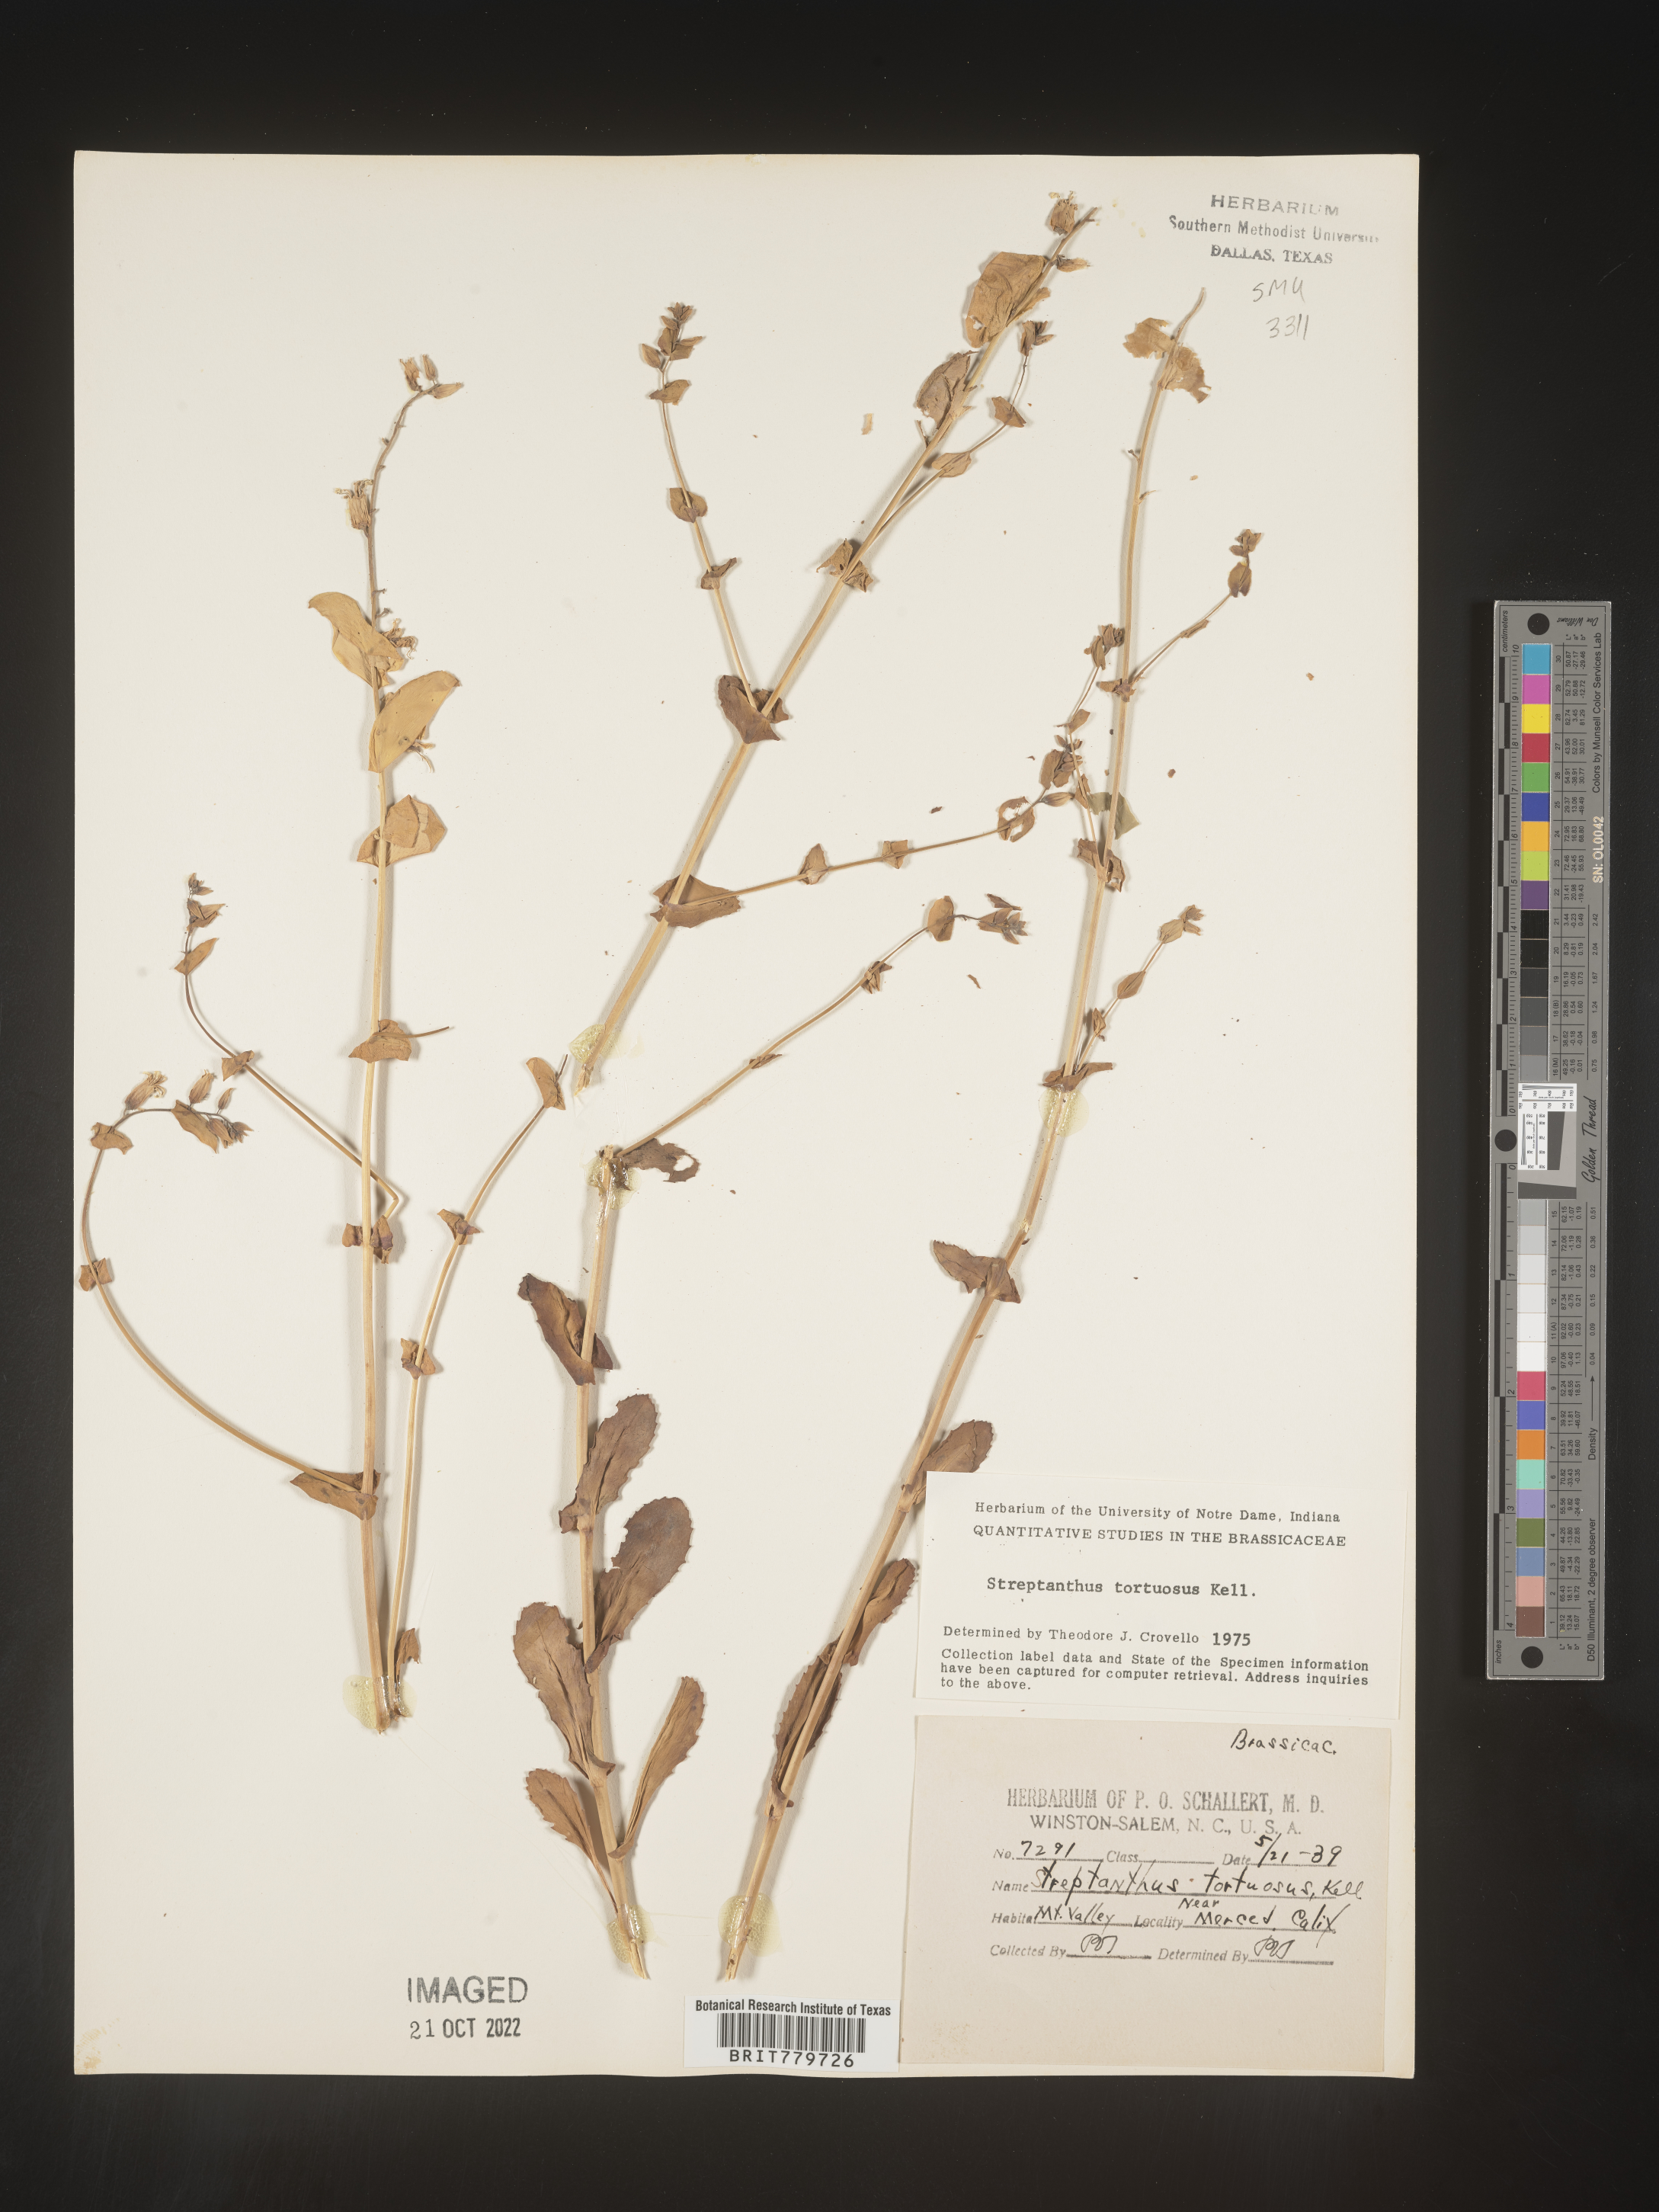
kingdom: Plantae
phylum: Tracheophyta
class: Magnoliopsida
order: Brassicales
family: Brassicaceae
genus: Streptanthus
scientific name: Streptanthus
